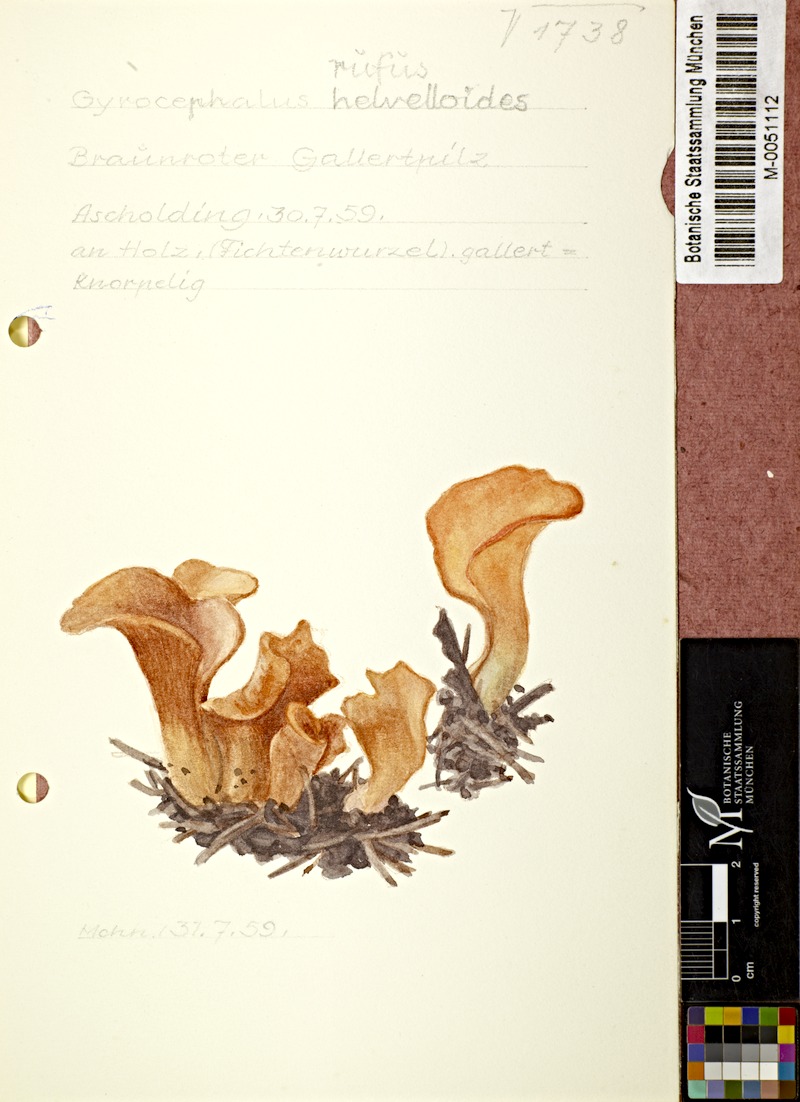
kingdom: Fungi
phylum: Basidiomycota
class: Agaricomycetes
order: Auriculariales
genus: Guepinia
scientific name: Guepinia helvelloides
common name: Salmon salad
